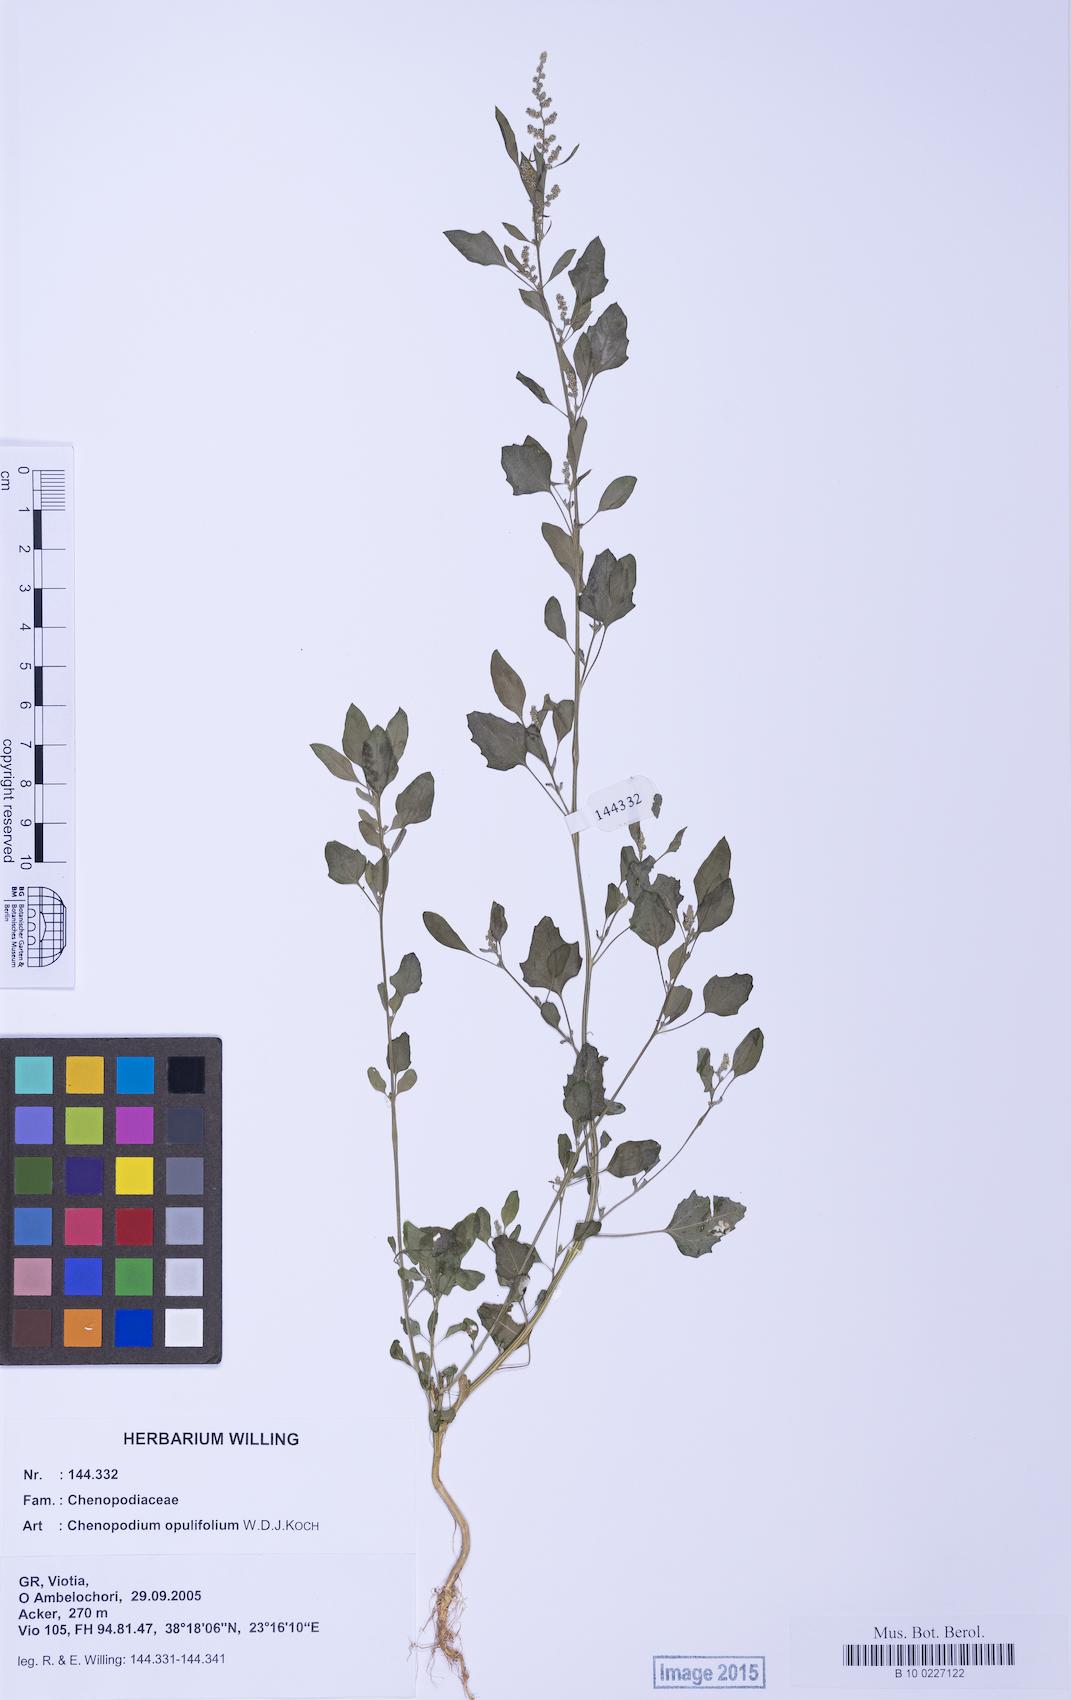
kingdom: Plantae
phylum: Tracheophyta
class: Magnoliopsida
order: Caryophyllales
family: Amaranthaceae
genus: Chenopodium
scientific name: Chenopodium opulifolium
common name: Grey goosefoot
